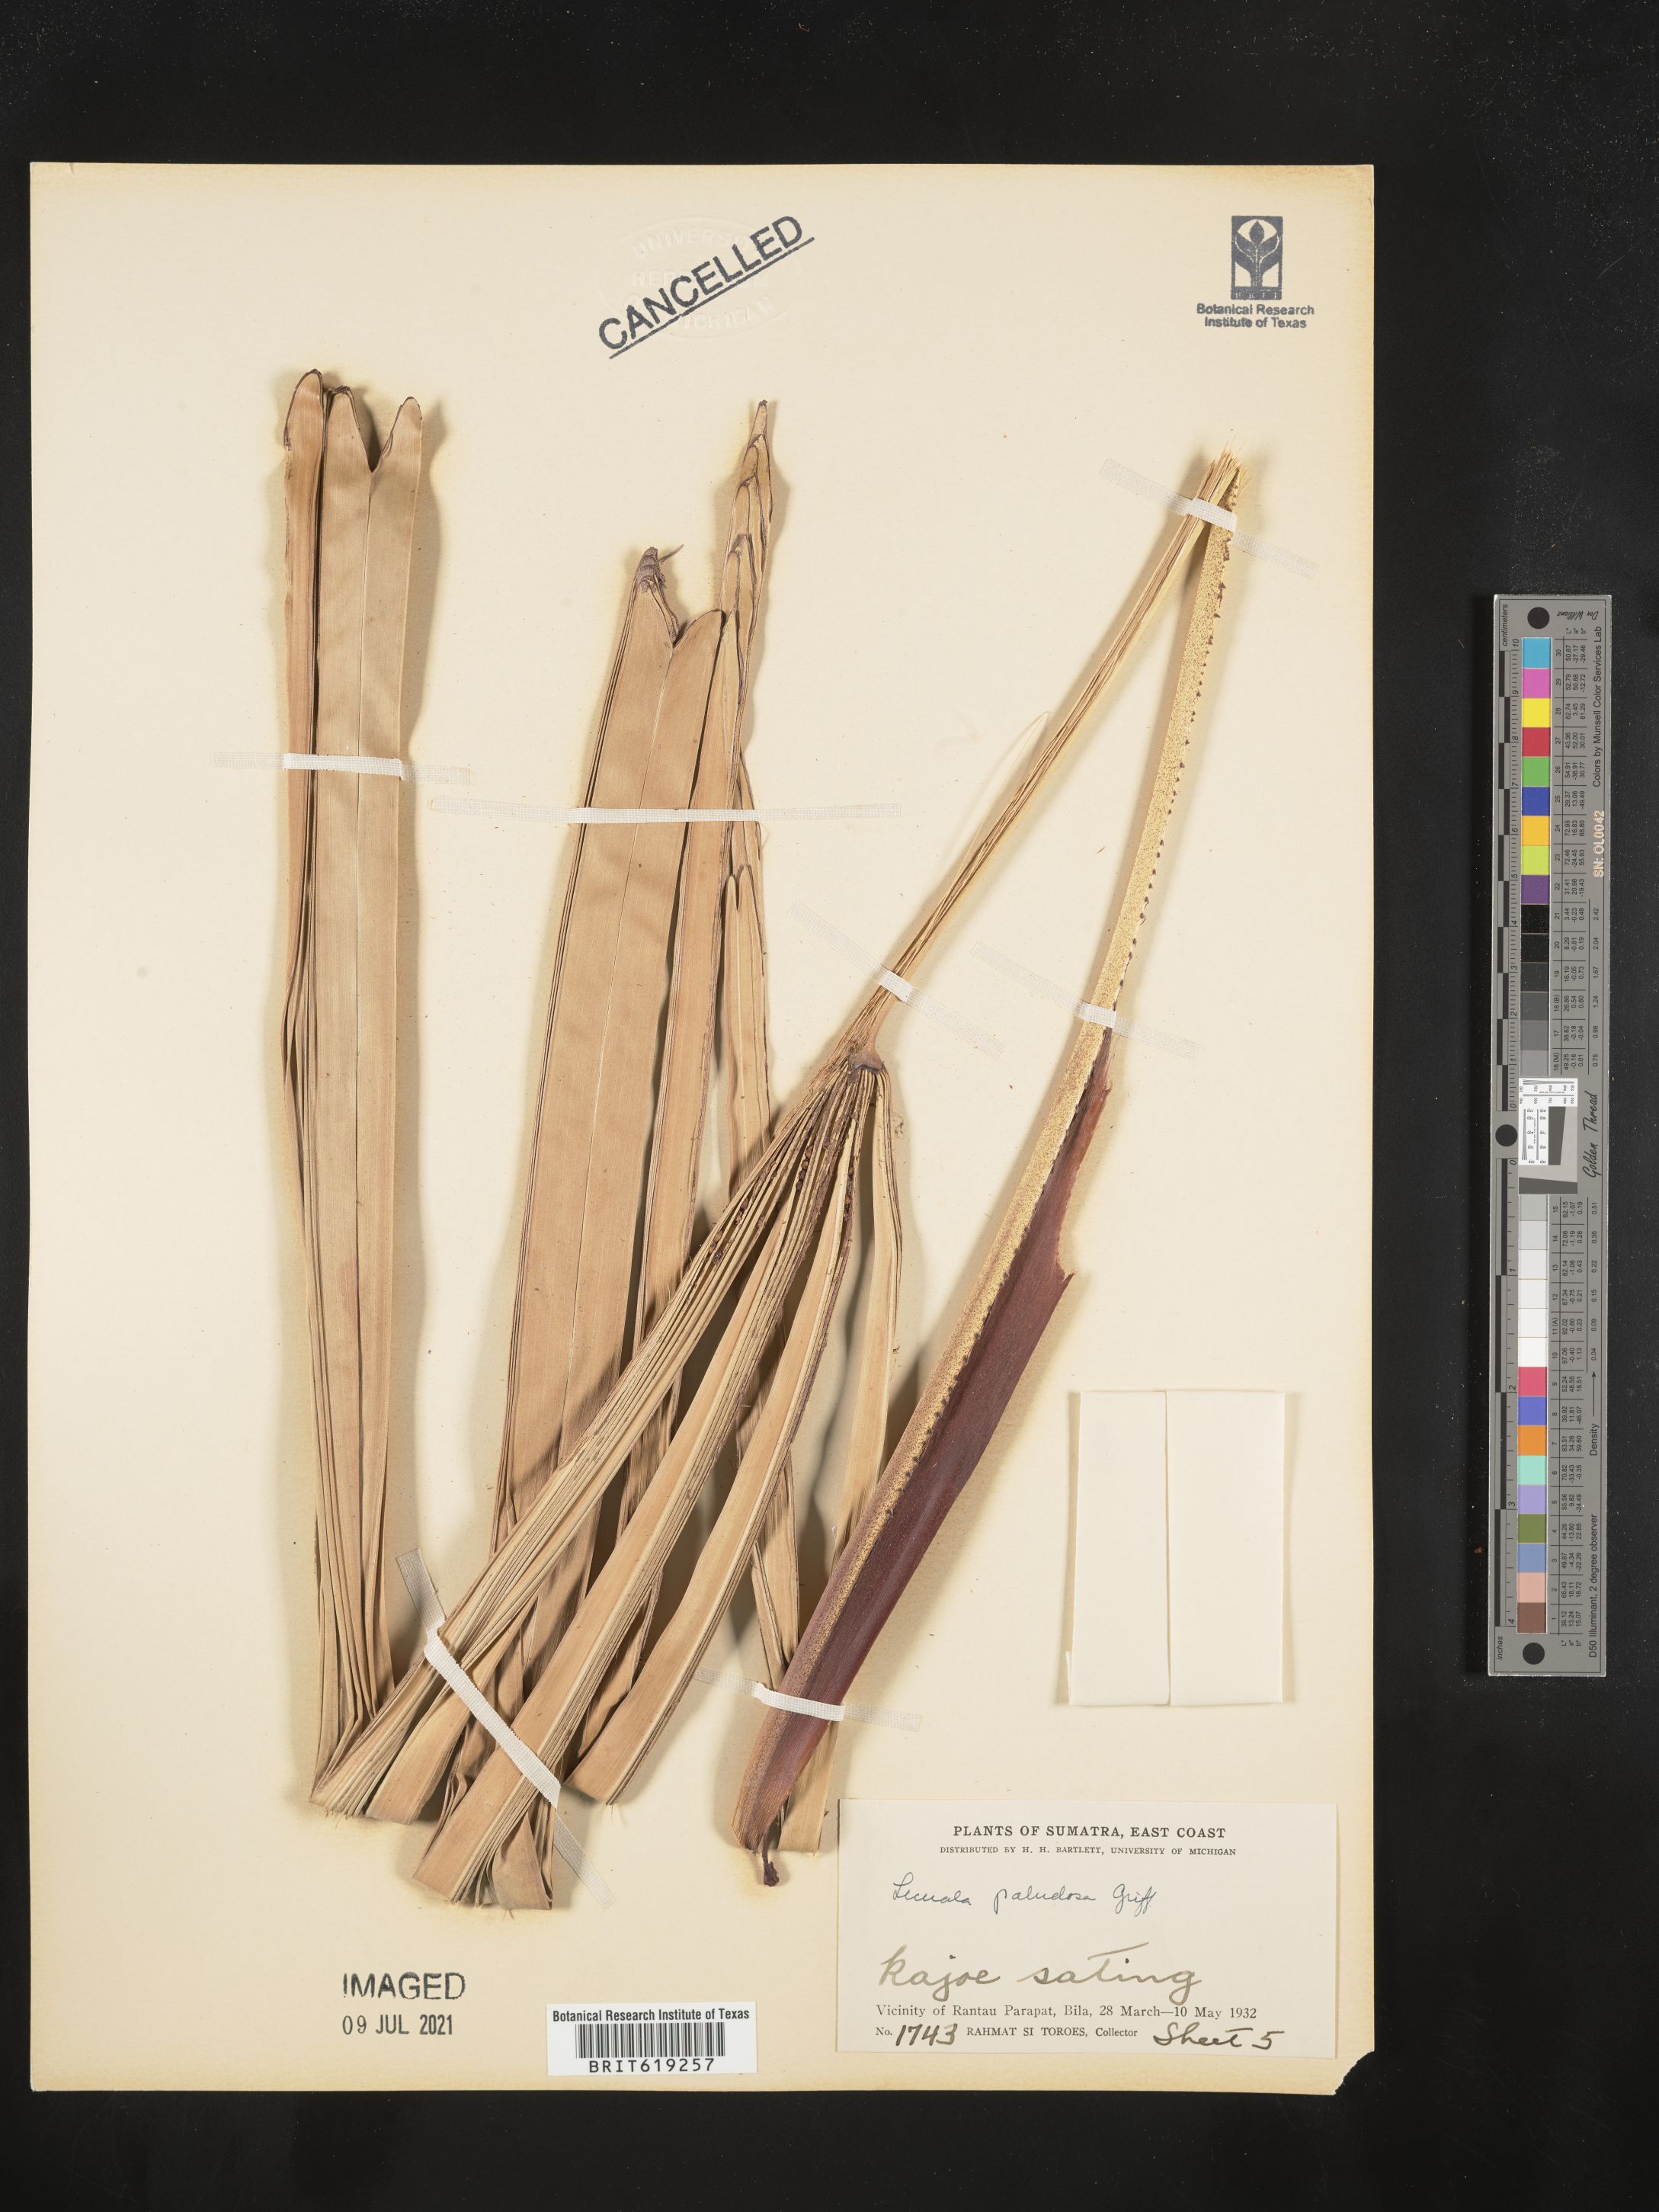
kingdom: Plantae
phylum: Tracheophyta
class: Liliopsida
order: Arecales
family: Arecaceae
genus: Licuala
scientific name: Licuala paludosa
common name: Swamp fan palm
